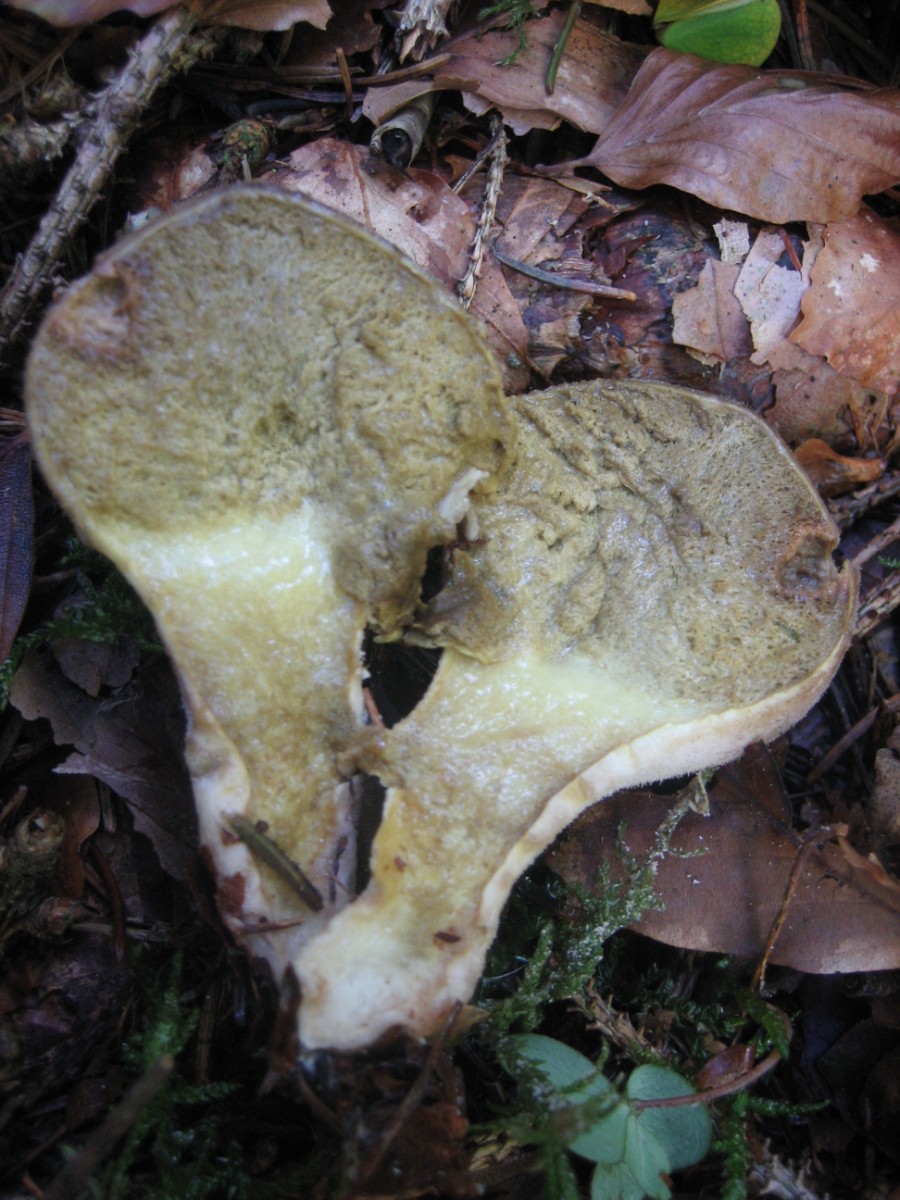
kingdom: Fungi
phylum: Basidiomycota
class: Agaricomycetes
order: Agaricales
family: Lycoperdaceae
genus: Lycoperdon
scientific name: Lycoperdon molle
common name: skov-støvbold
